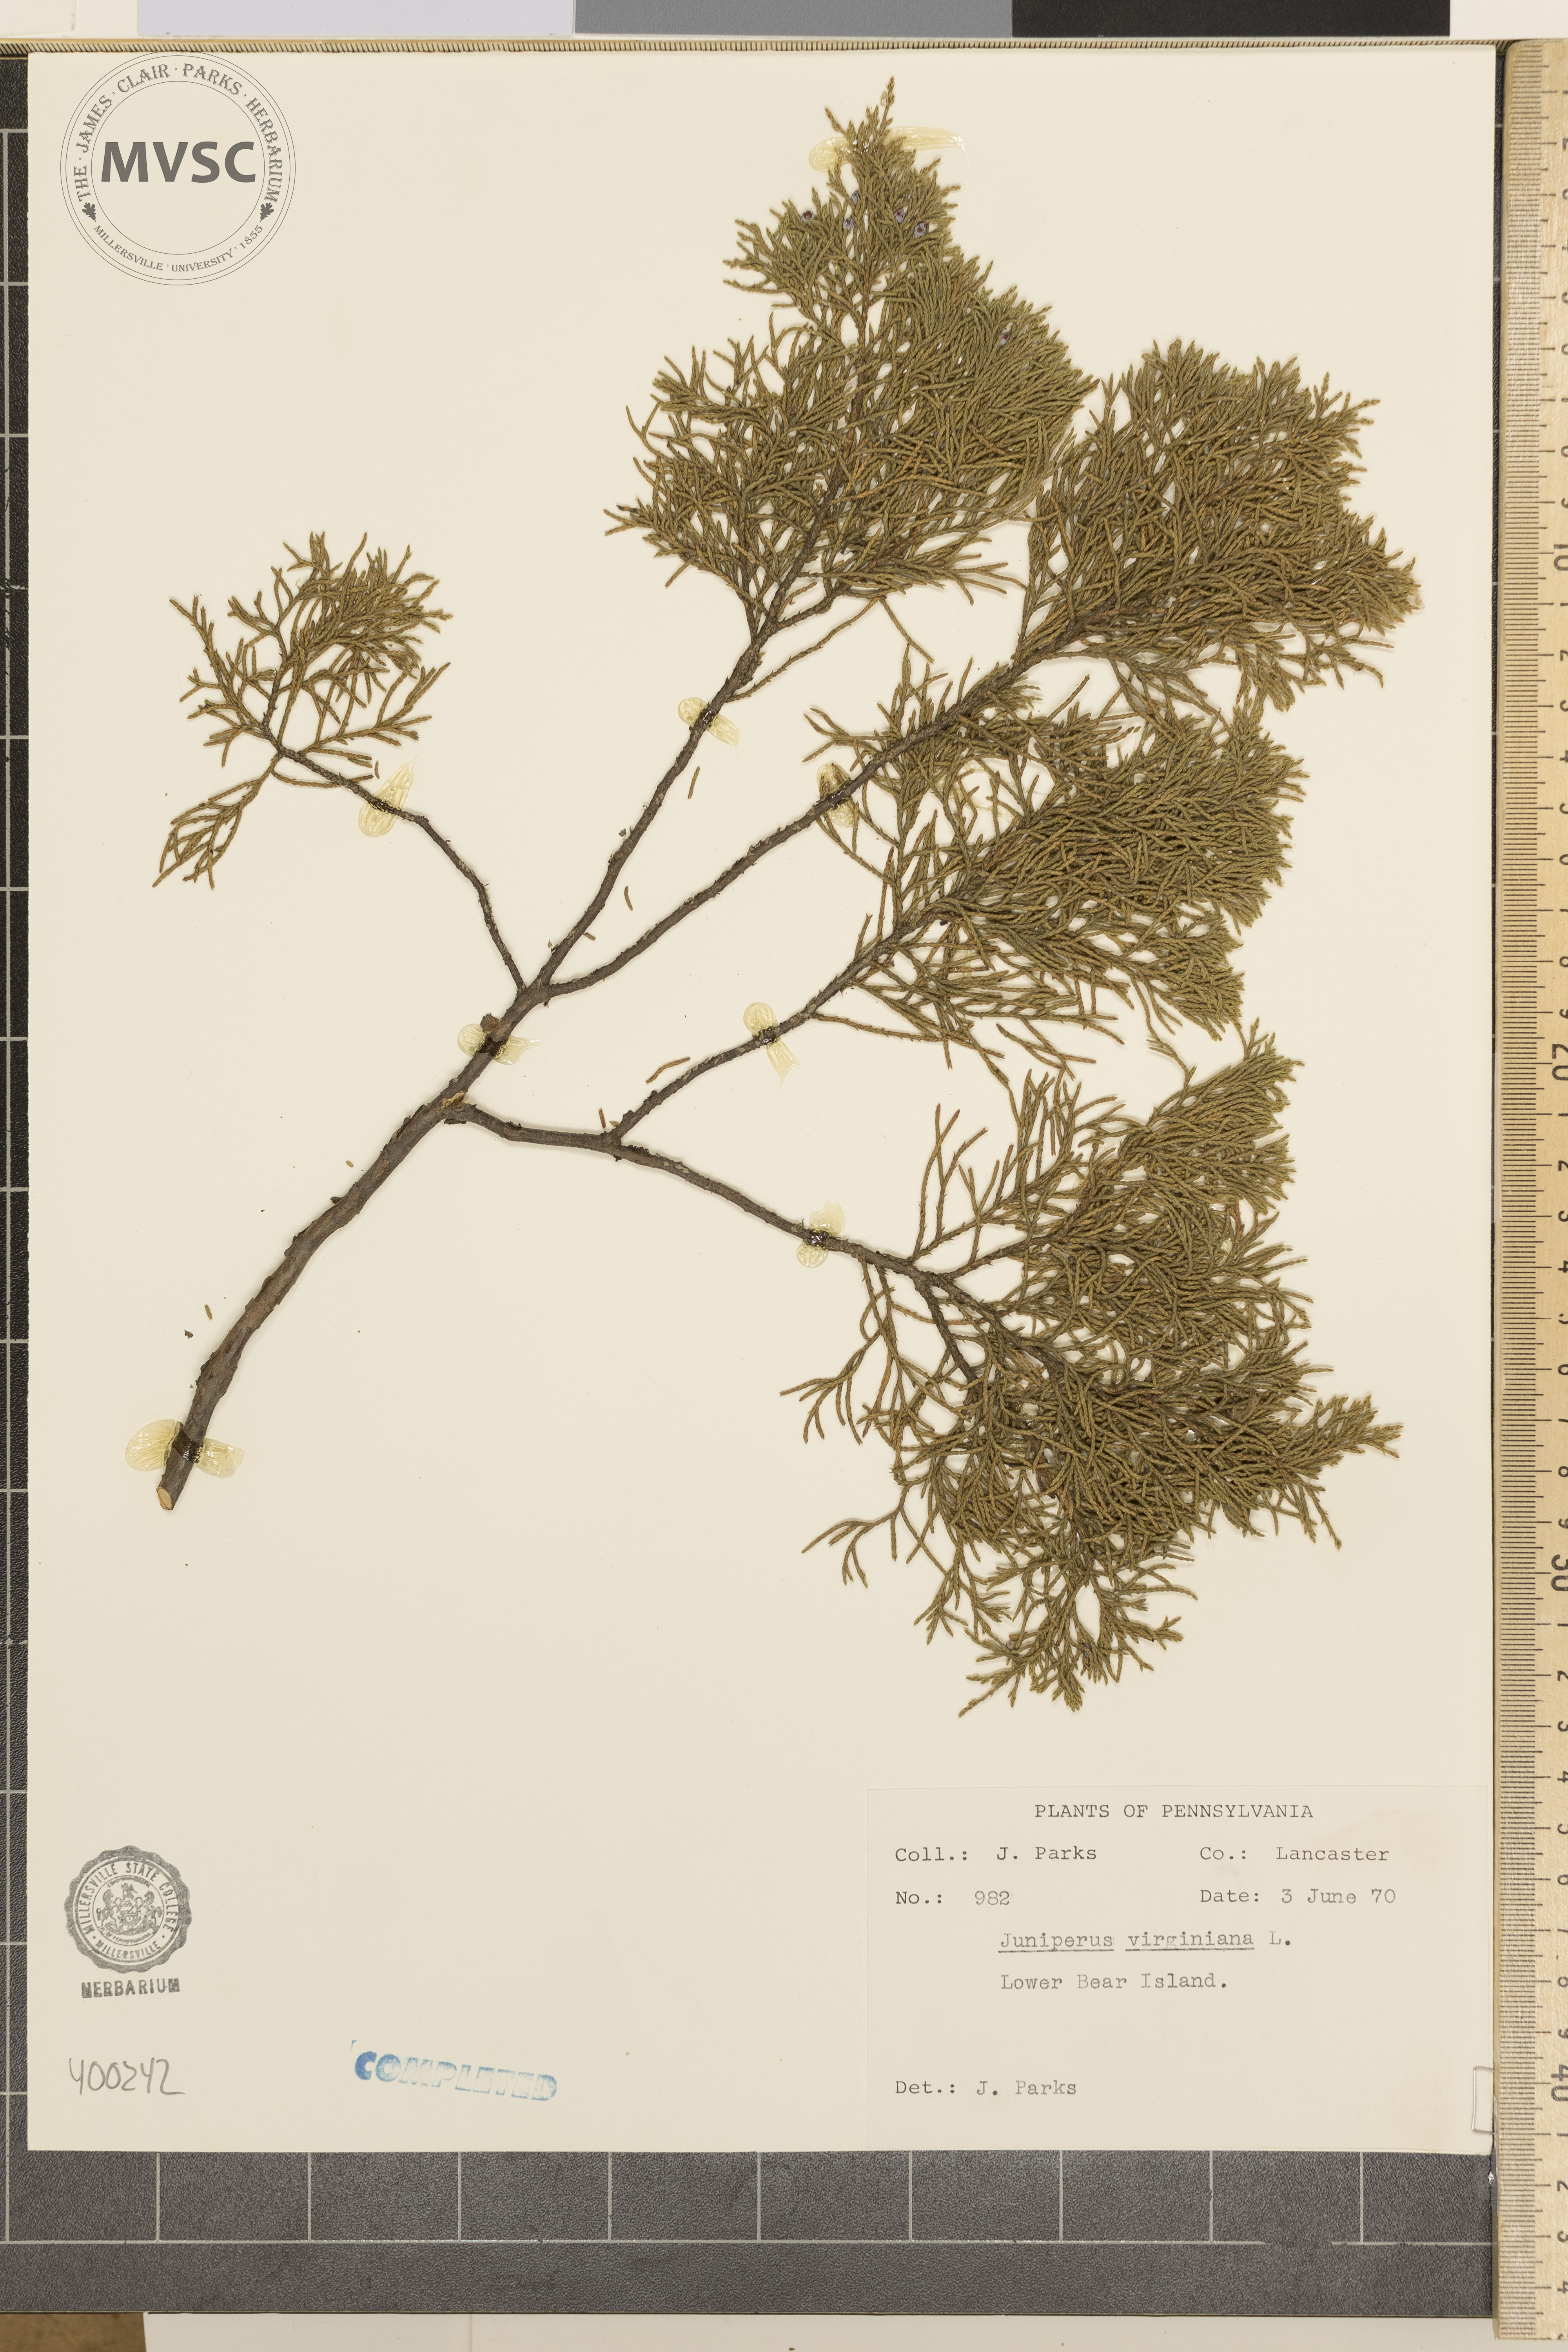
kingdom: Plantae
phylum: Tracheophyta
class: Pinopsida
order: Pinales
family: Cupressaceae
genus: Juniperus
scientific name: Juniperus virginiana
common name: Eastern red-cedar
